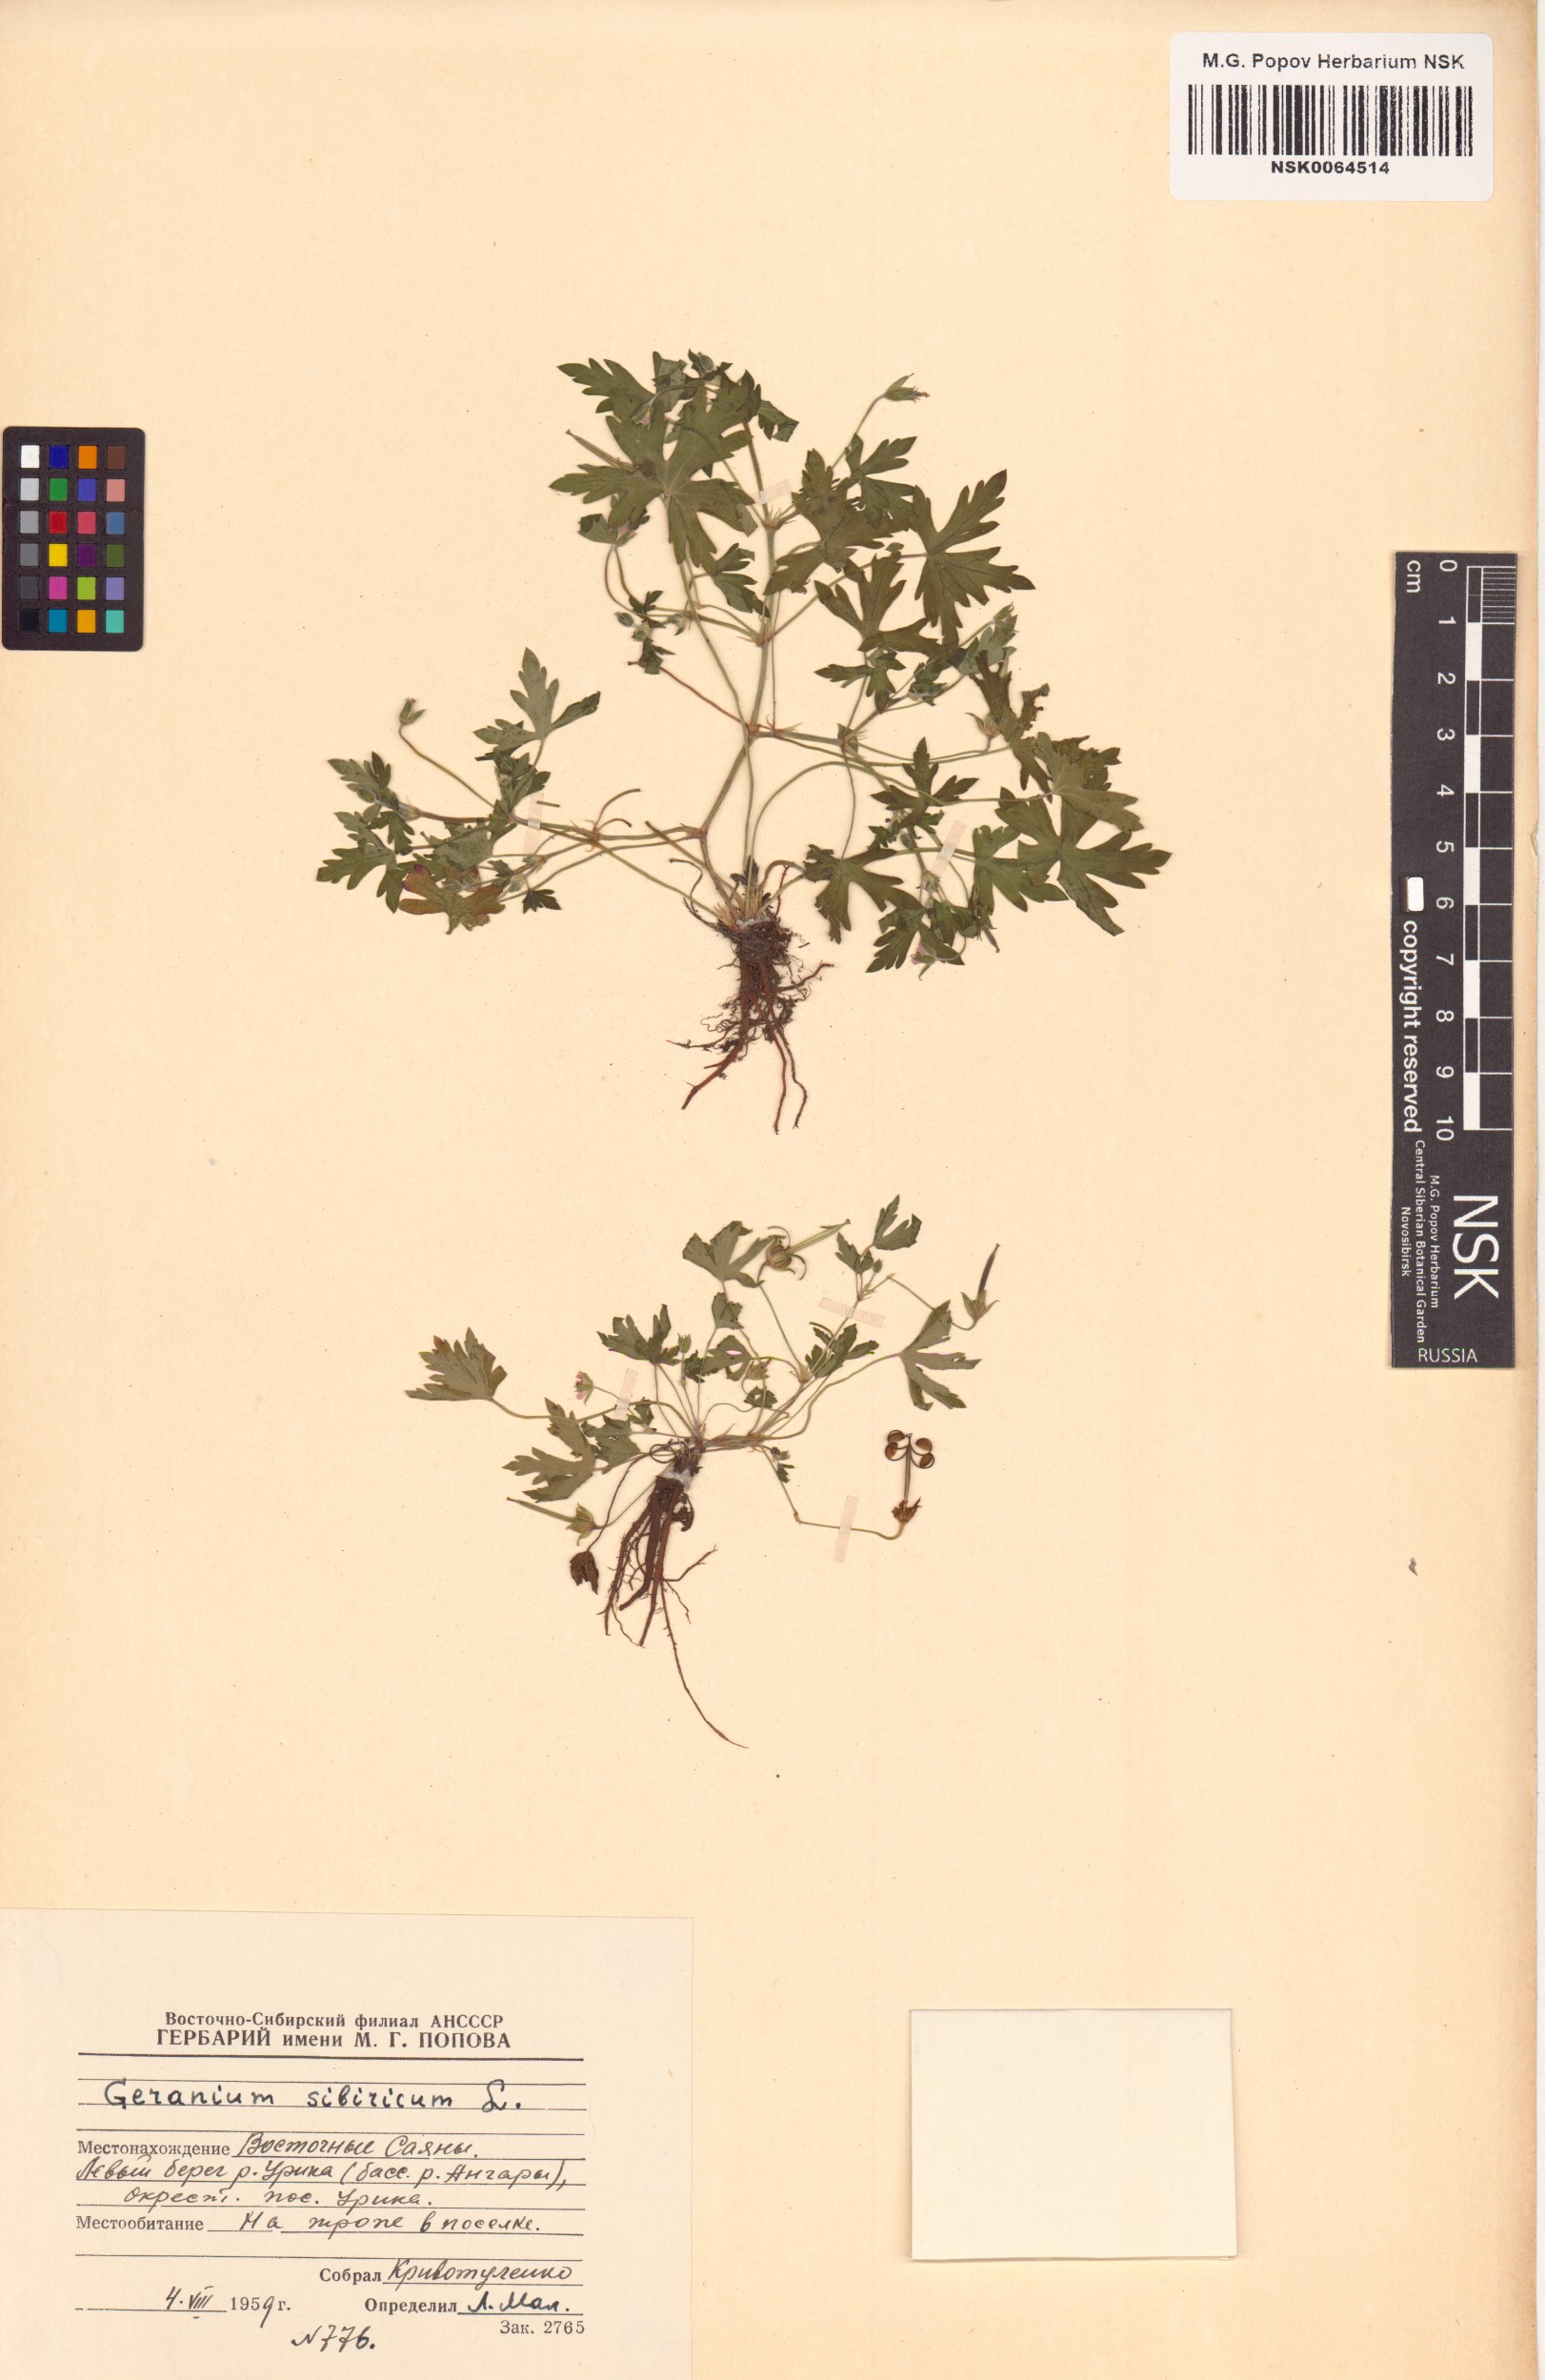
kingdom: Plantae
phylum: Tracheophyta
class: Magnoliopsida
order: Geraniales
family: Geraniaceae
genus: Geranium
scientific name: Geranium sibiricum
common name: Siberian crane's-bill
